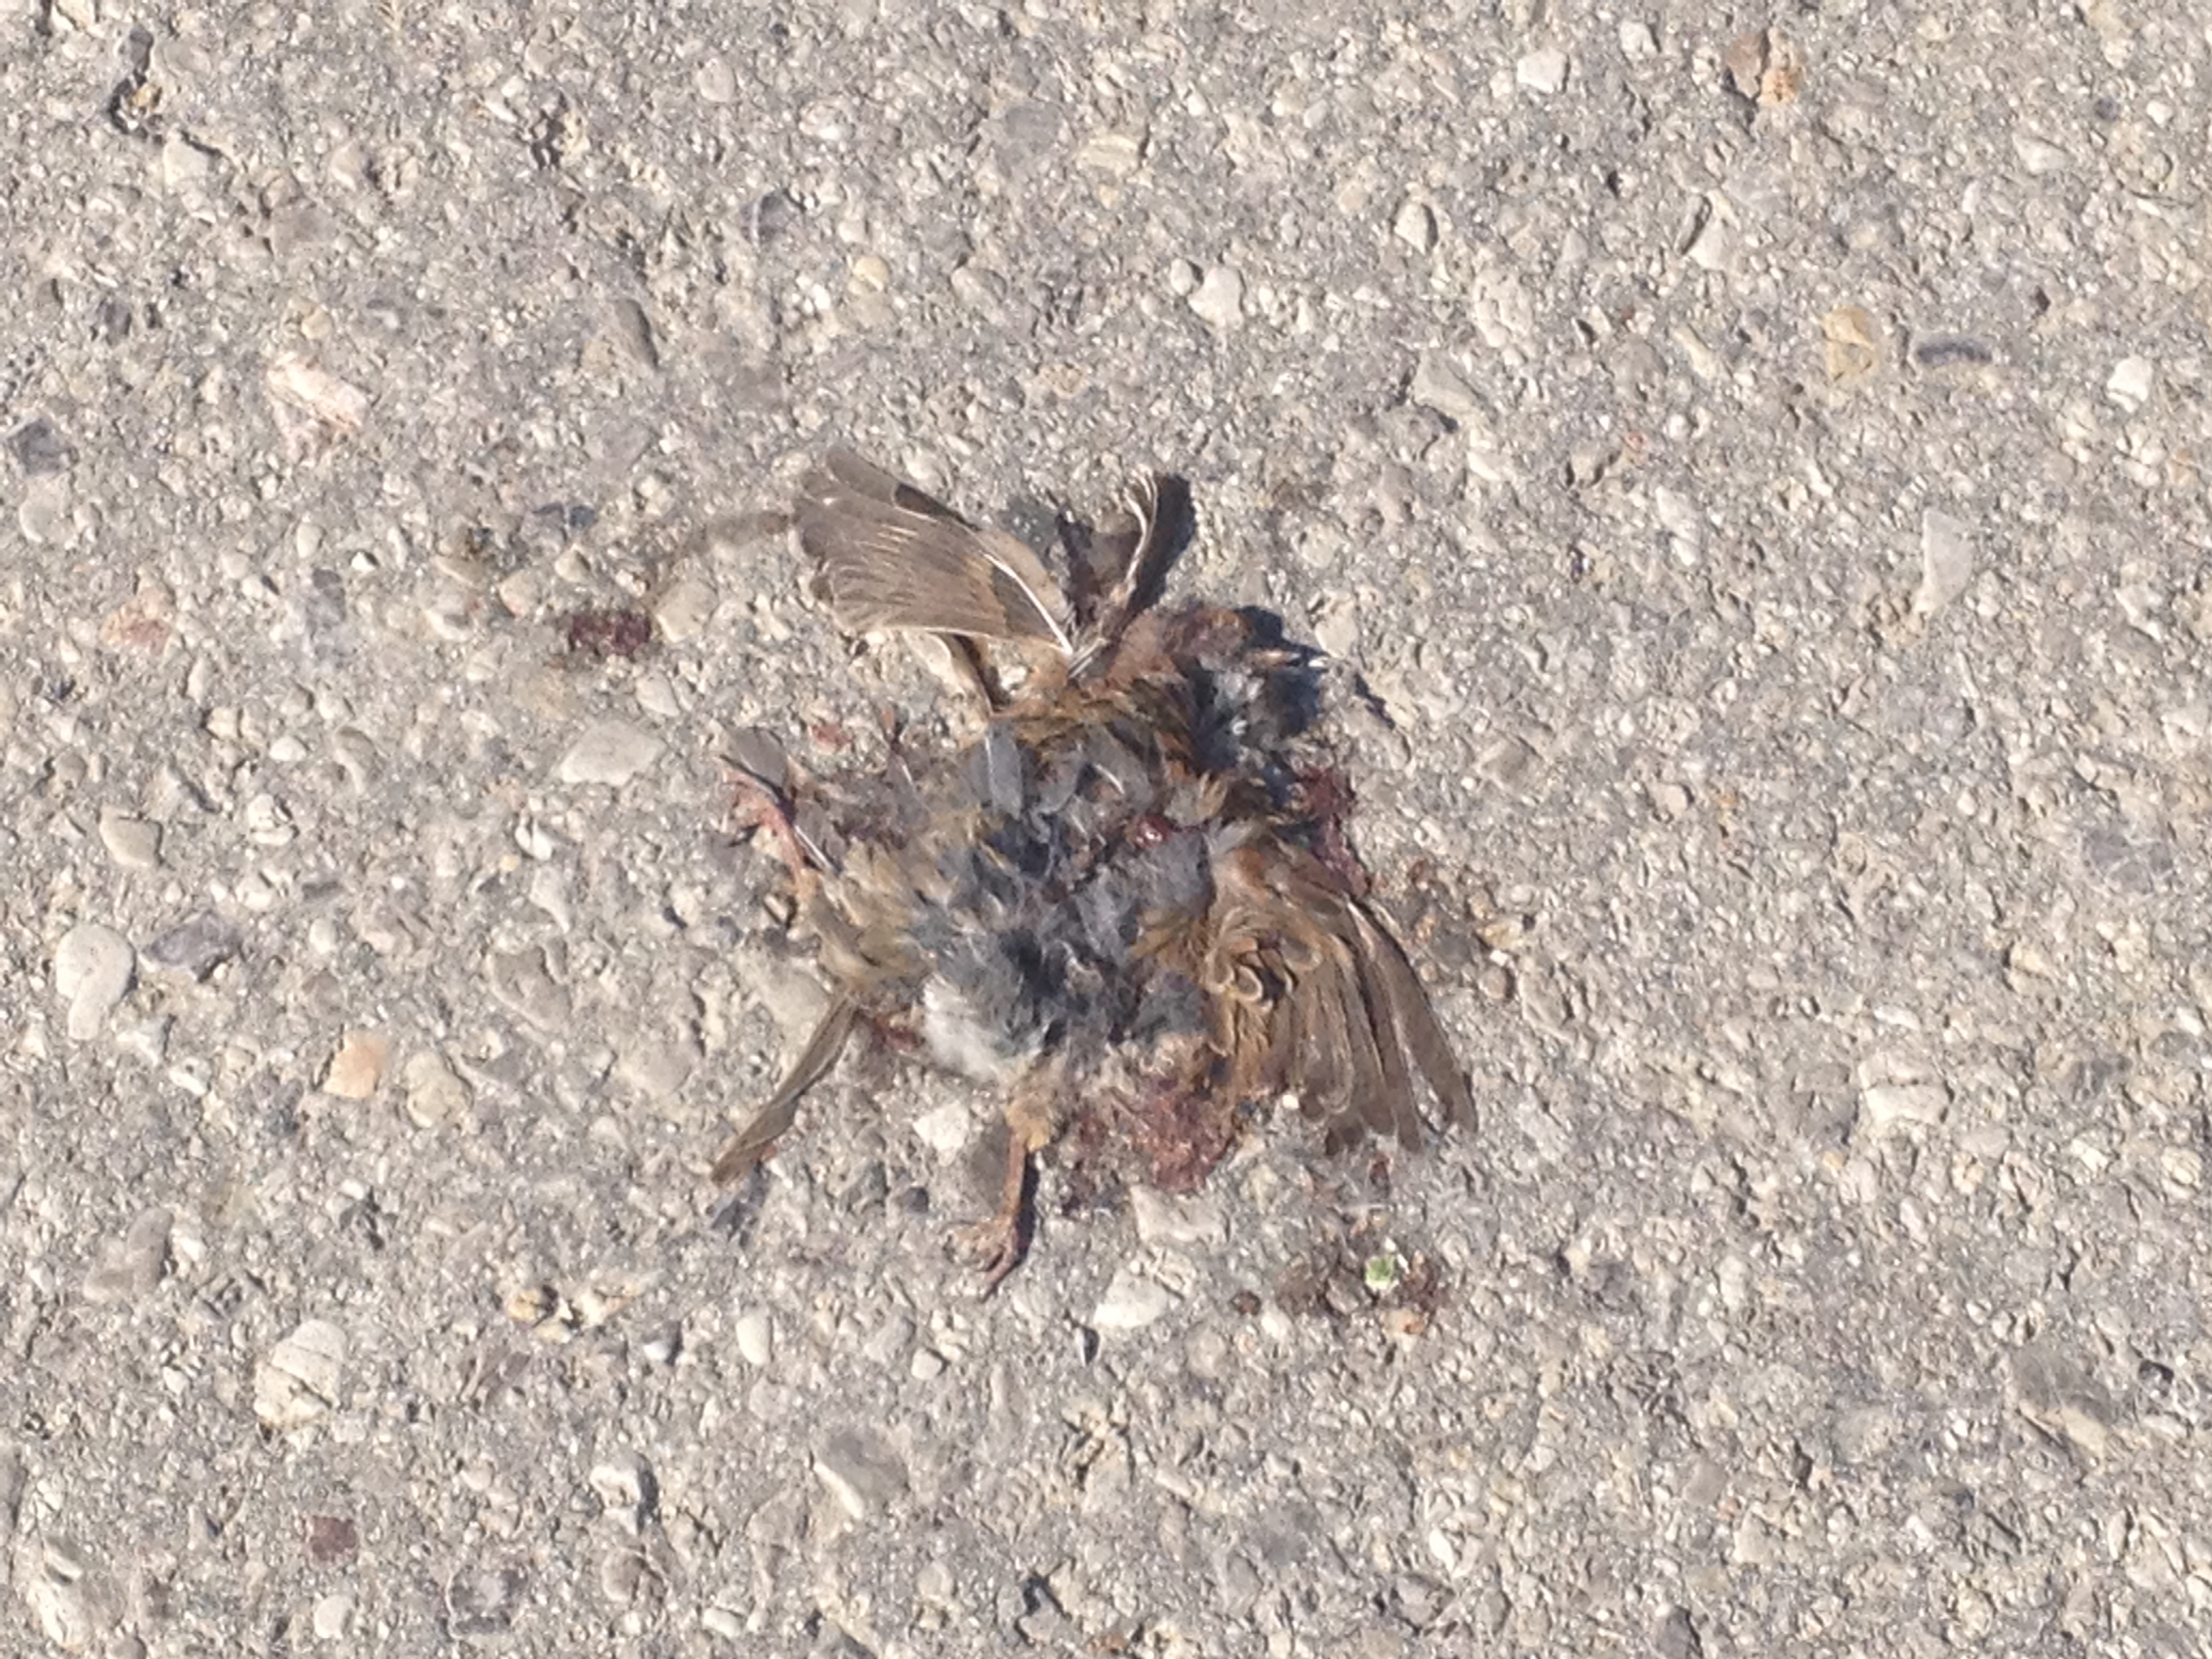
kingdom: Animalia
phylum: Chordata
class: Aves
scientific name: Aves
